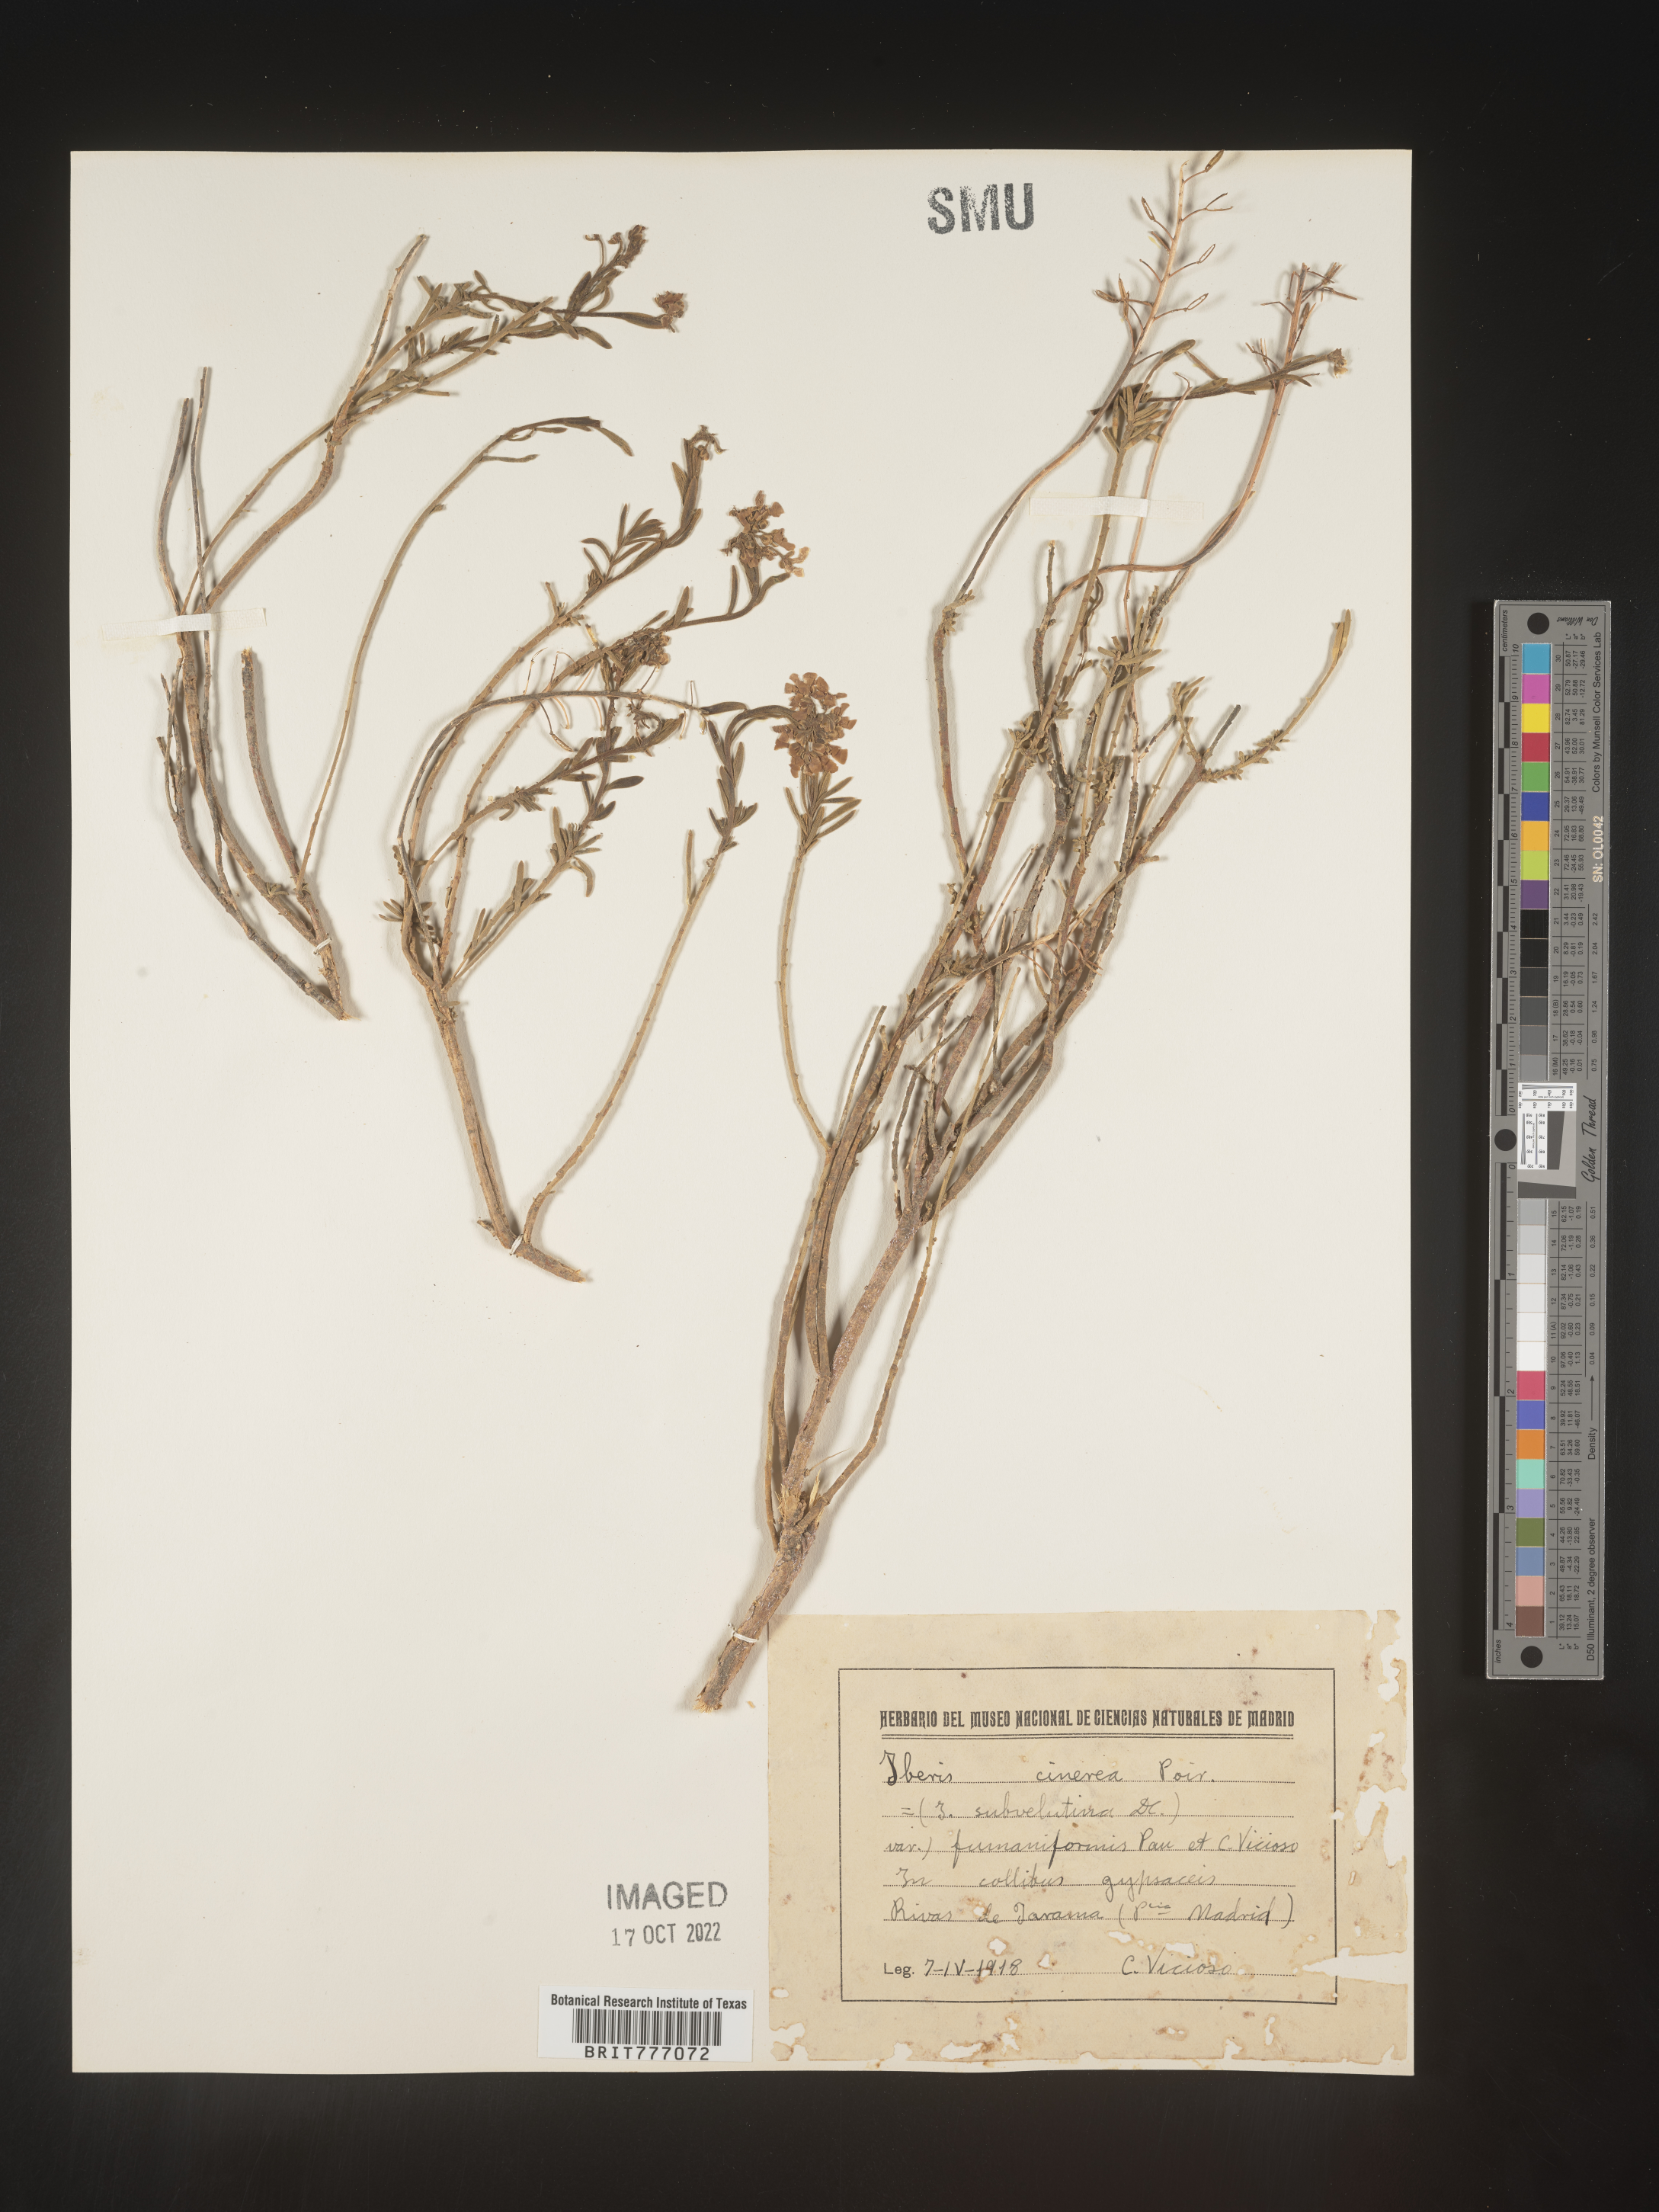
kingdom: Plantae
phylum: Tracheophyta
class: Magnoliopsida
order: Brassicales
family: Brassicaceae
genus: Iberis
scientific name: Iberis
